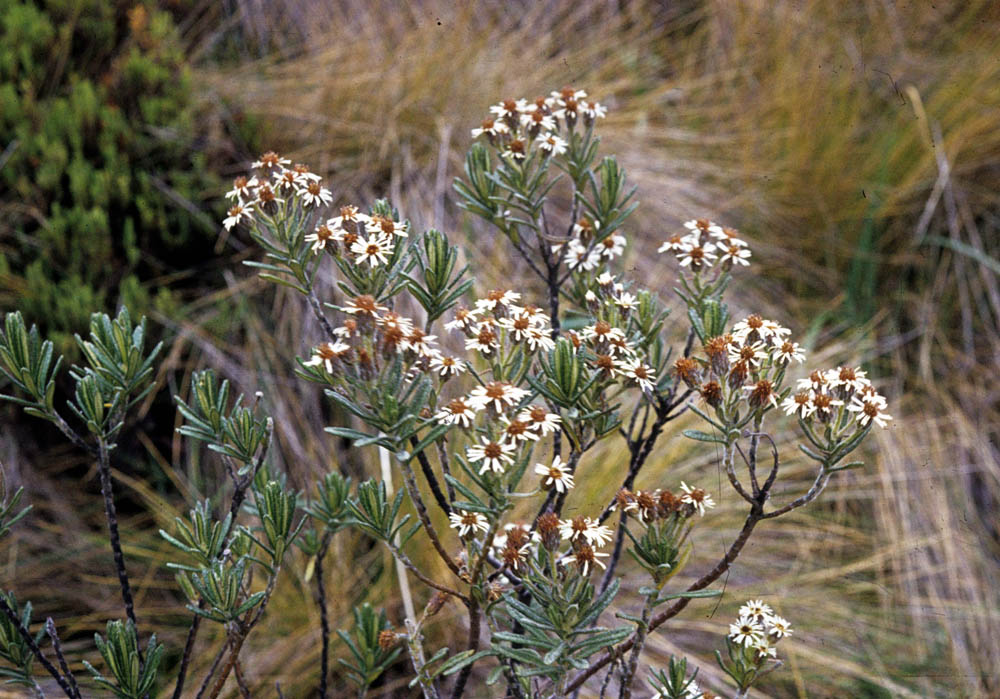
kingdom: Plantae
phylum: Tracheophyta
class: Magnoliopsida
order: Asterales
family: Asteraceae
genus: Linochilus
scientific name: Linochilus rupestris
